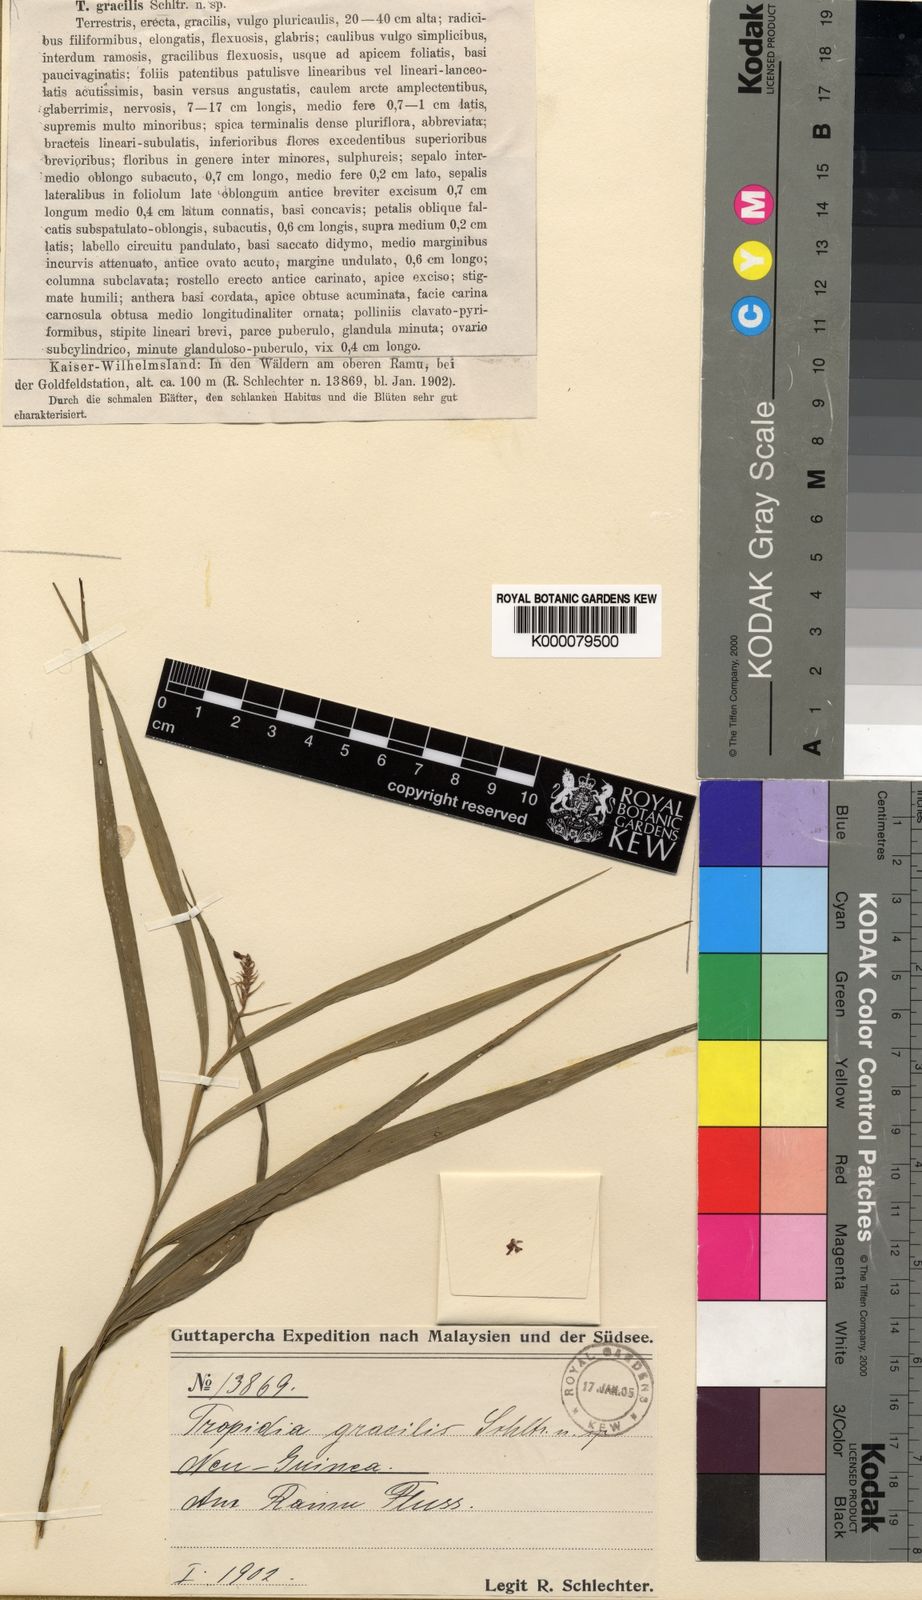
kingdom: Plantae
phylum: Tracheophyta
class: Liliopsida
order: Asparagales
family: Orchidaceae
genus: Tropidia
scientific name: Tropidia gracilis
